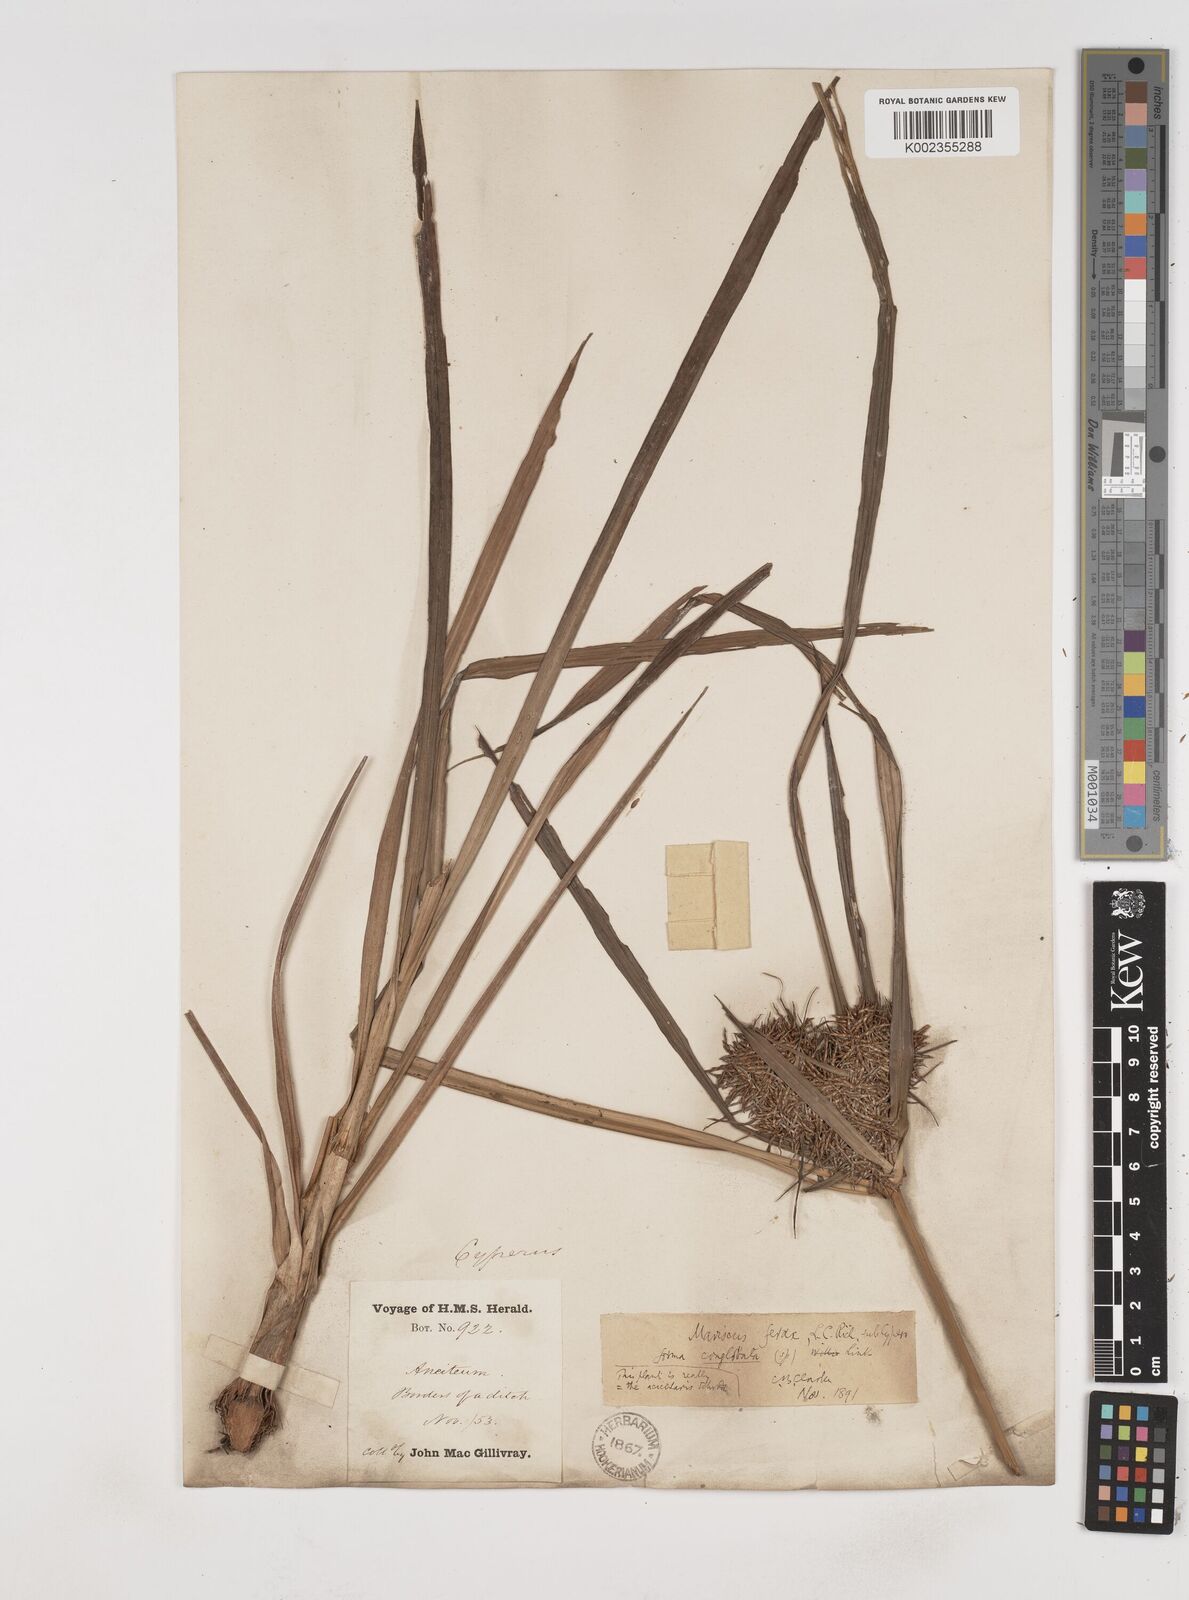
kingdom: Plantae
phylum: Tracheophyta
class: Liliopsida
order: Poales
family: Cyperaceae
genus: Cyperus
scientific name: Cyperus strongii
